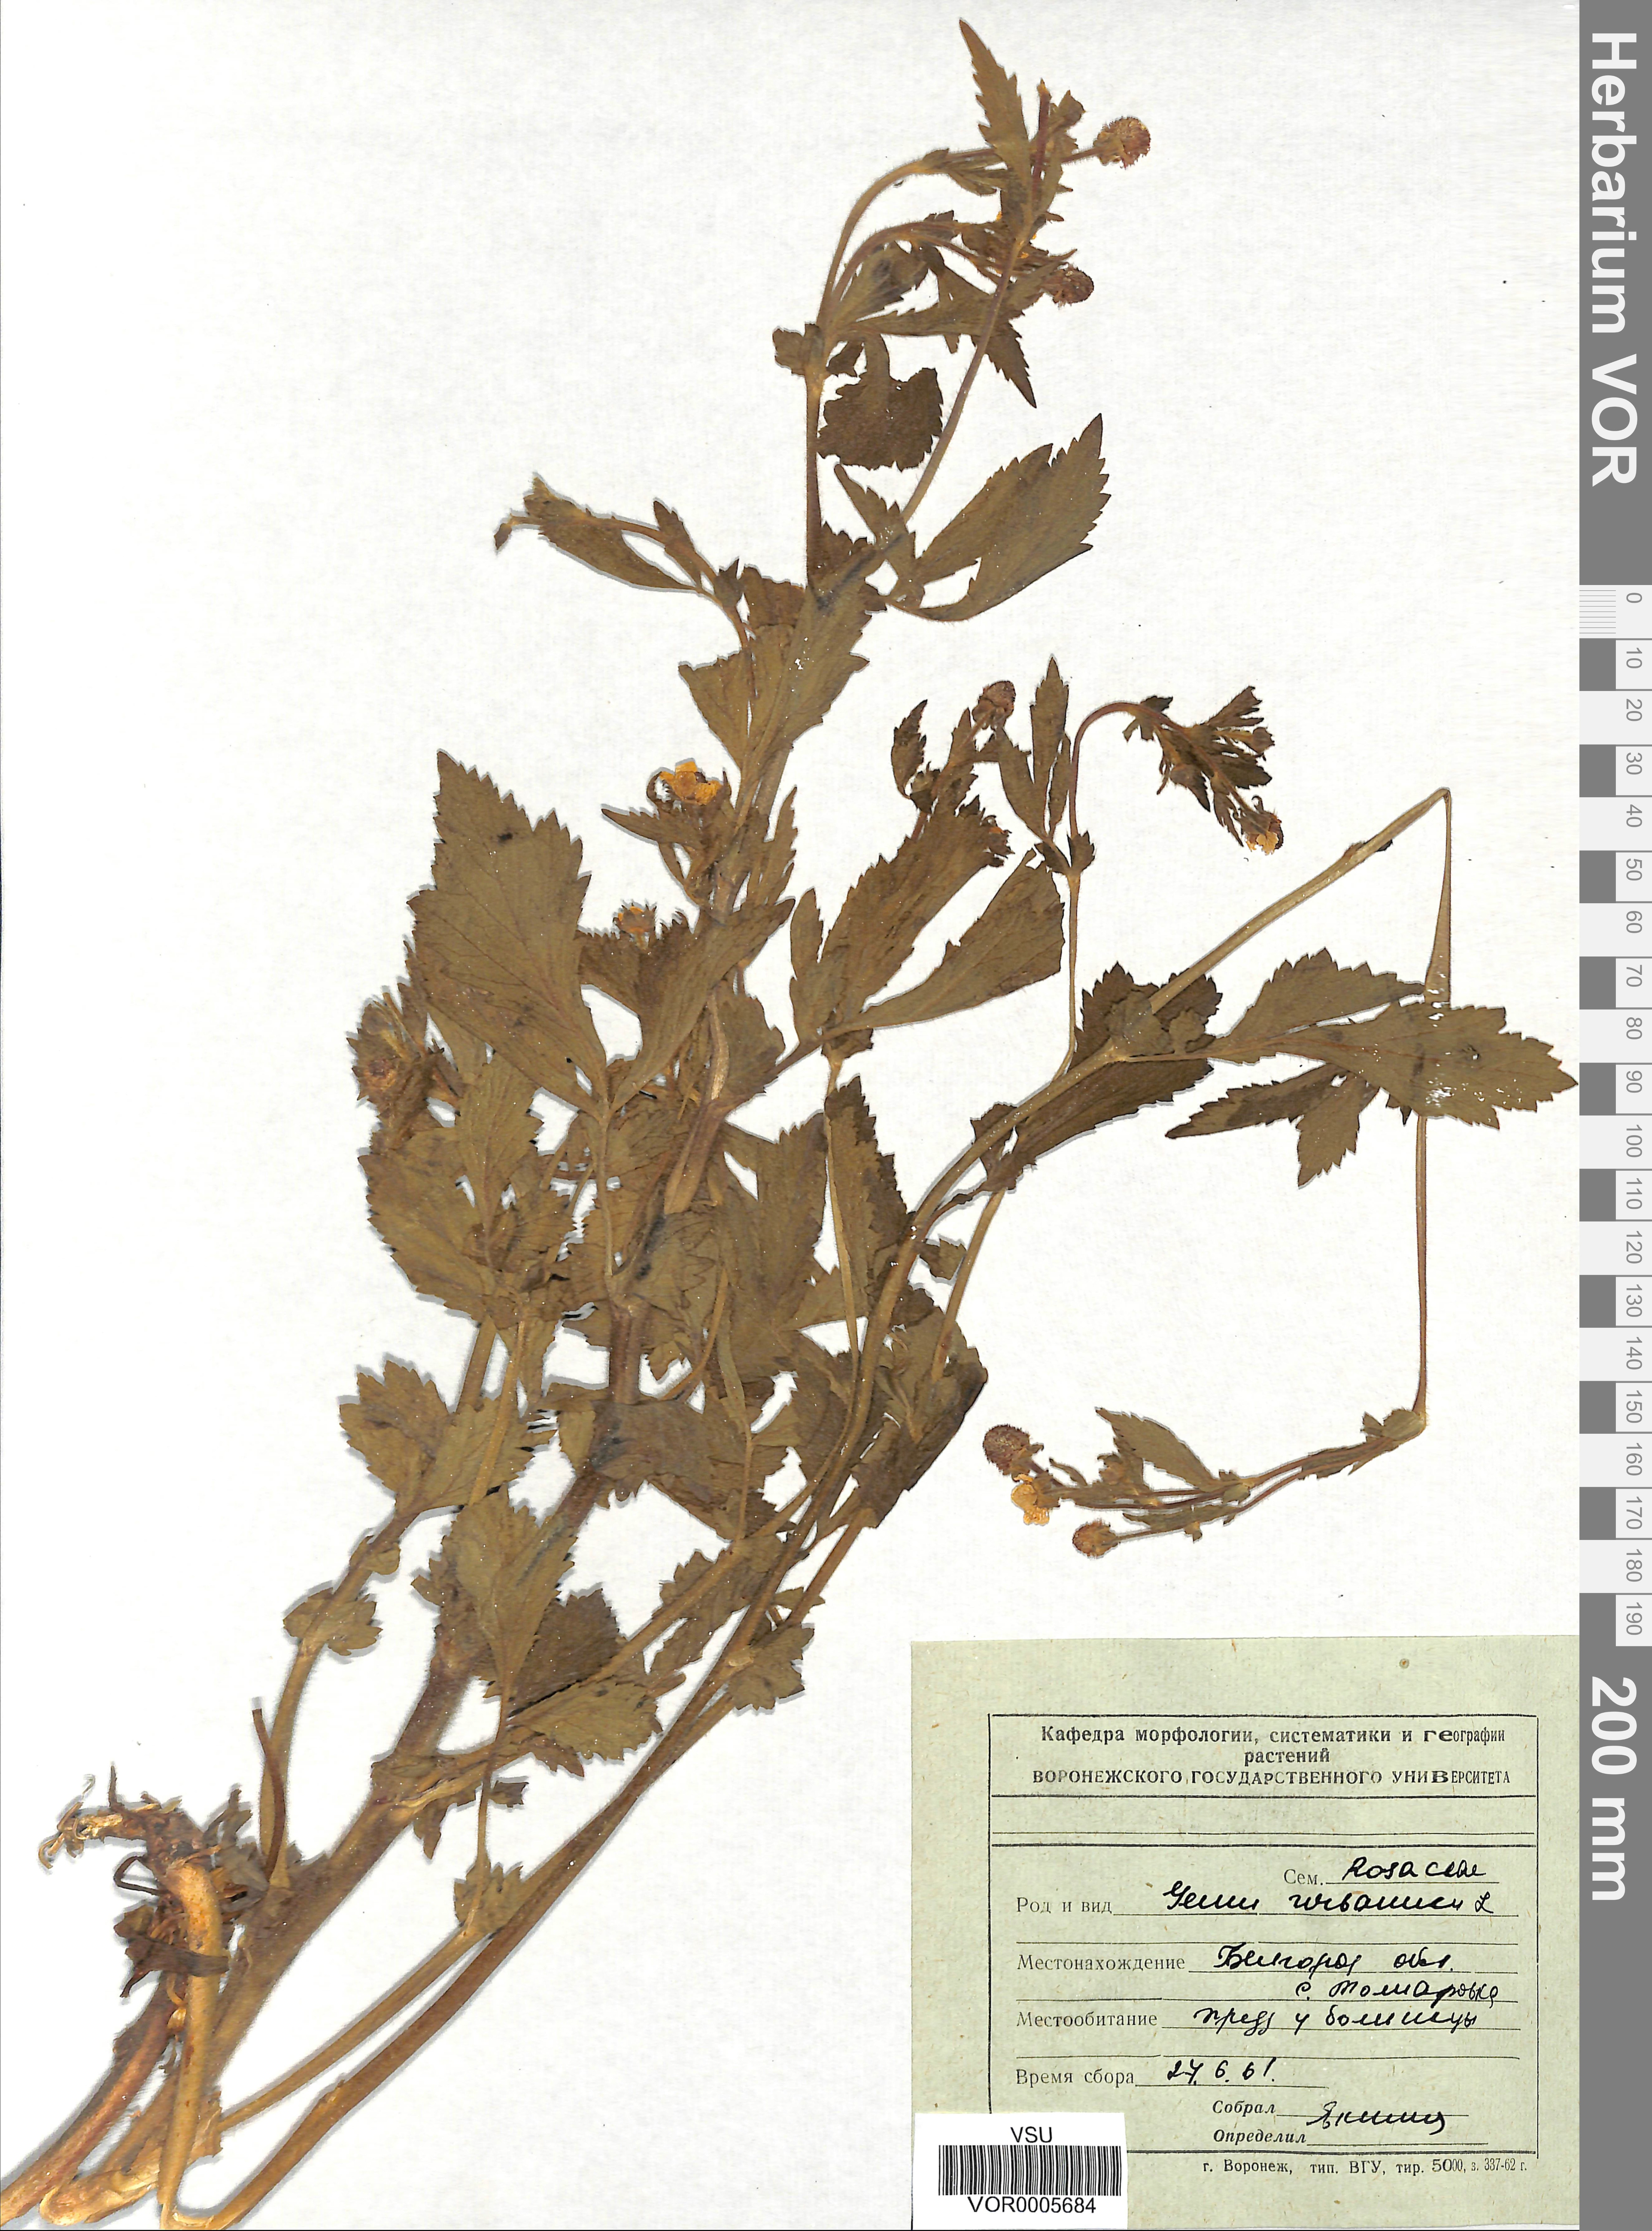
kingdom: Plantae
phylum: Tracheophyta
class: Magnoliopsida
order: Rosales
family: Rosaceae
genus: Geum
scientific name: Geum urbanum
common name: Wood avens
